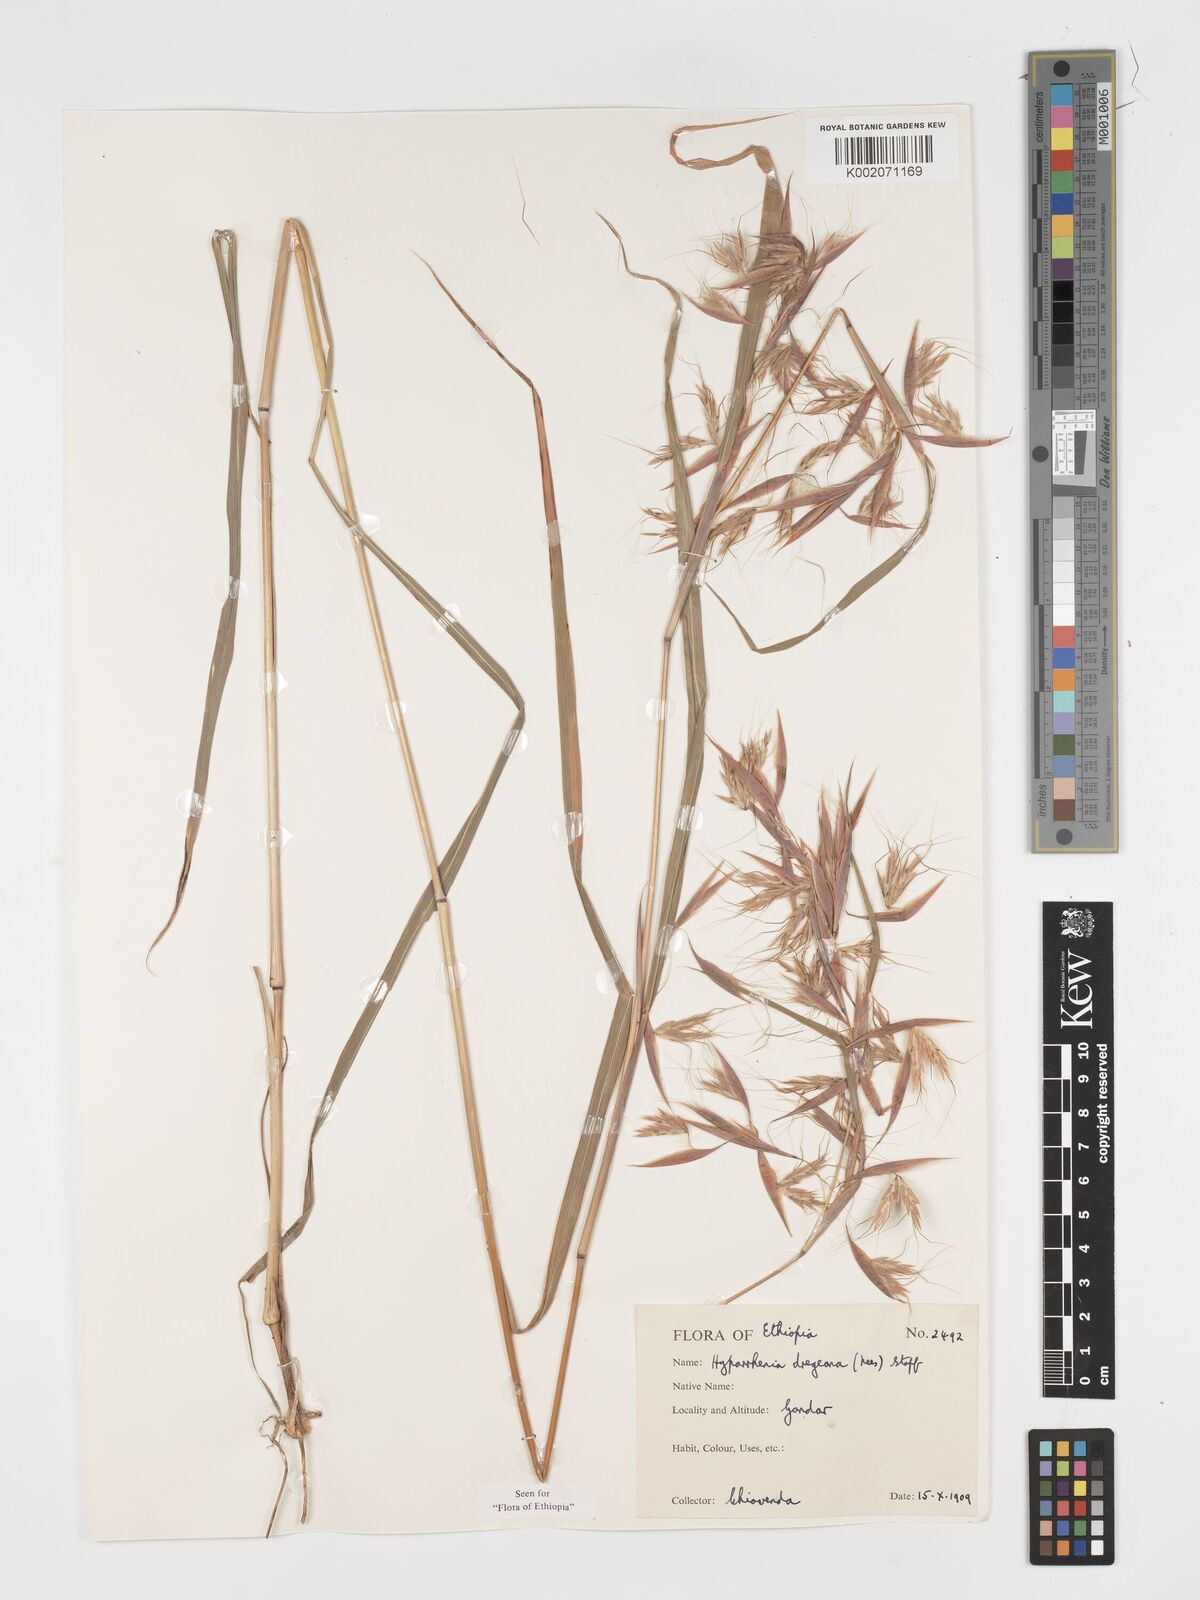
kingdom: Plantae
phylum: Tracheophyta
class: Liliopsida
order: Poales
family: Poaceae
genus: Hyparrhenia
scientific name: Hyparrhenia dregeana
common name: Silky thatching grass
